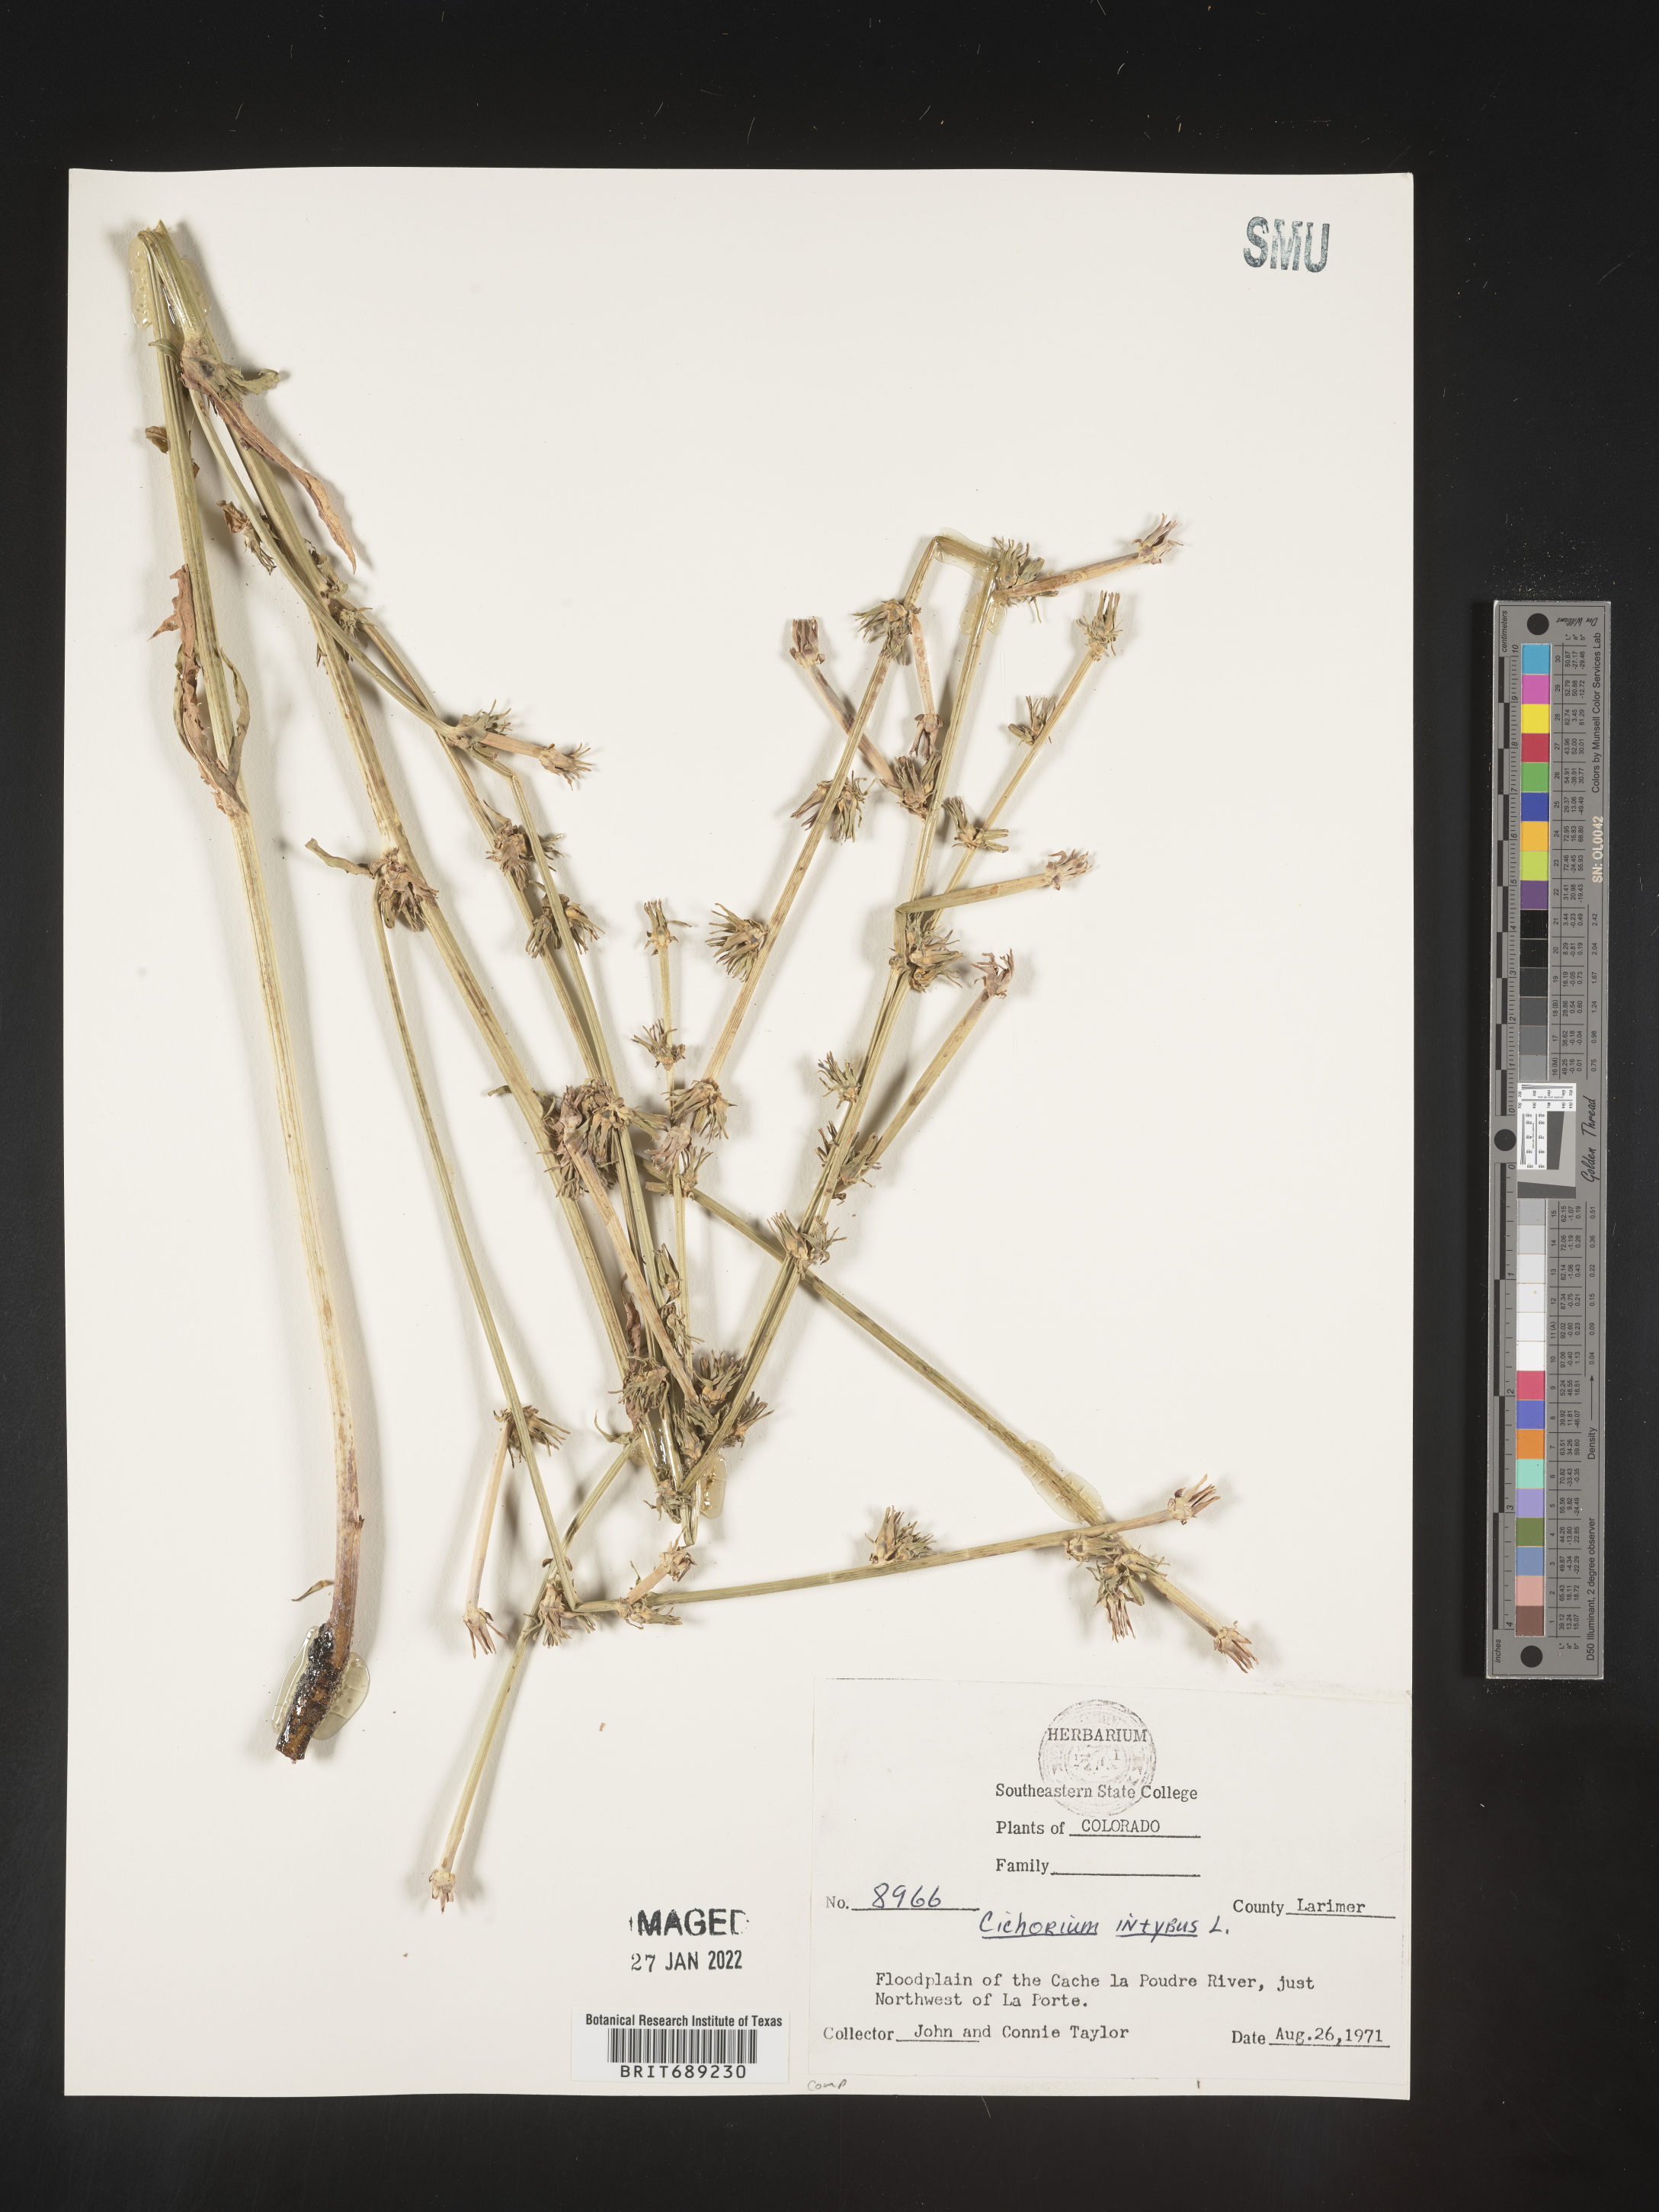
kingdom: Plantae
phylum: Tracheophyta
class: Magnoliopsida
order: Asterales
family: Asteraceae
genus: Cichorium
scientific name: Cichorium intybus
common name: Chicory
